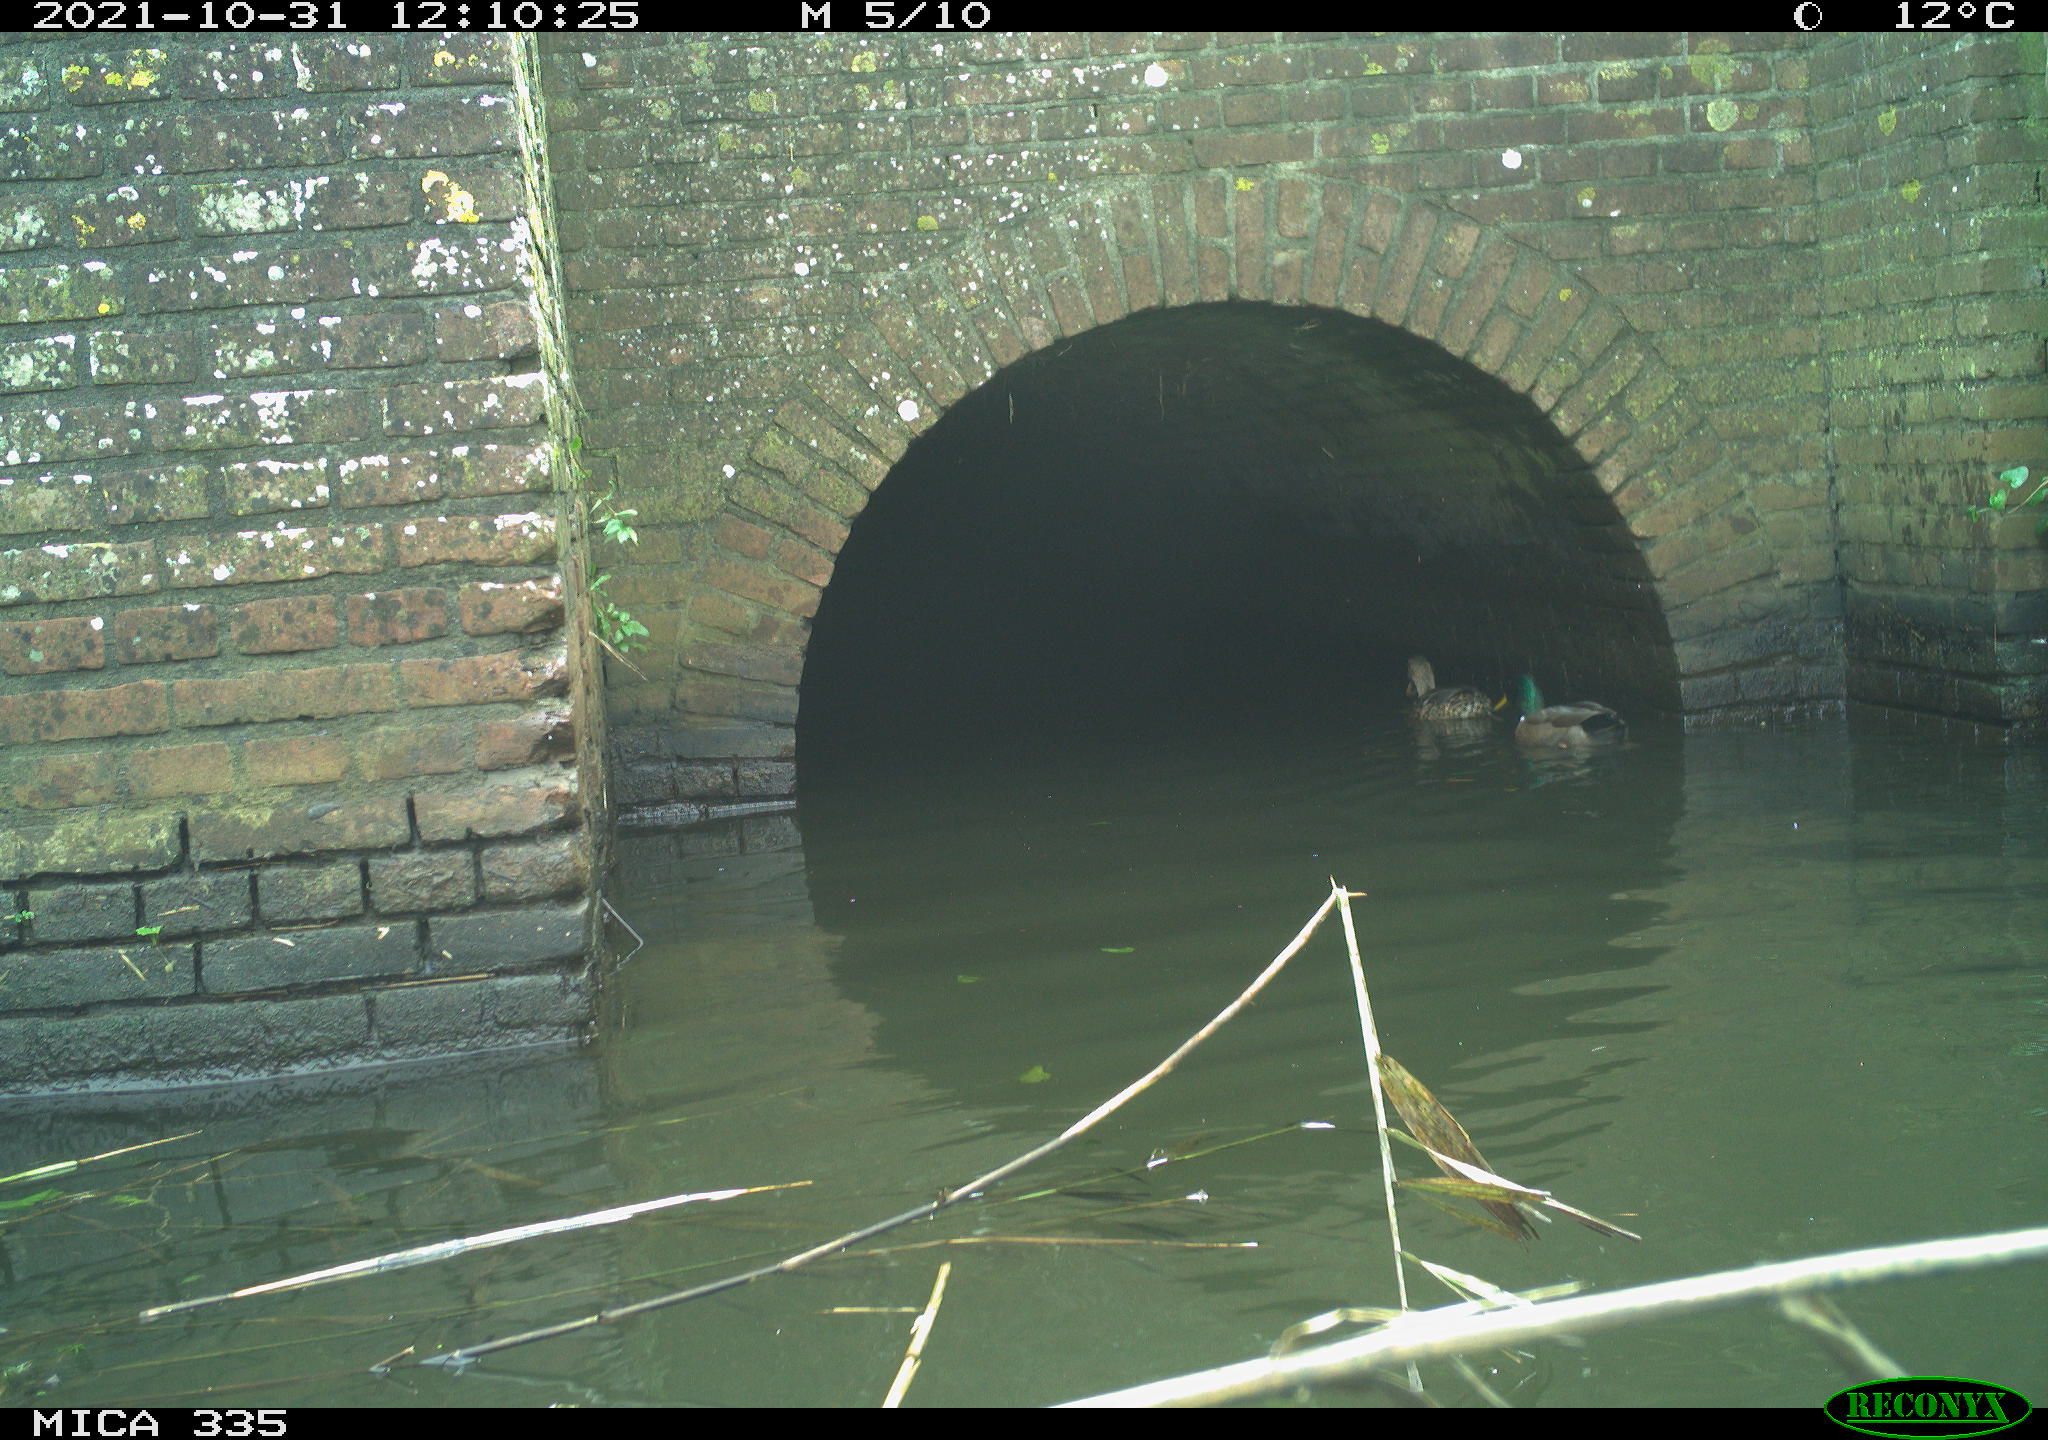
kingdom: Animalia
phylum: Chordata
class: Aves
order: Anseriformes
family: Anatidae
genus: Anas
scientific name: Anas platyrhynchos
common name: Mallard
